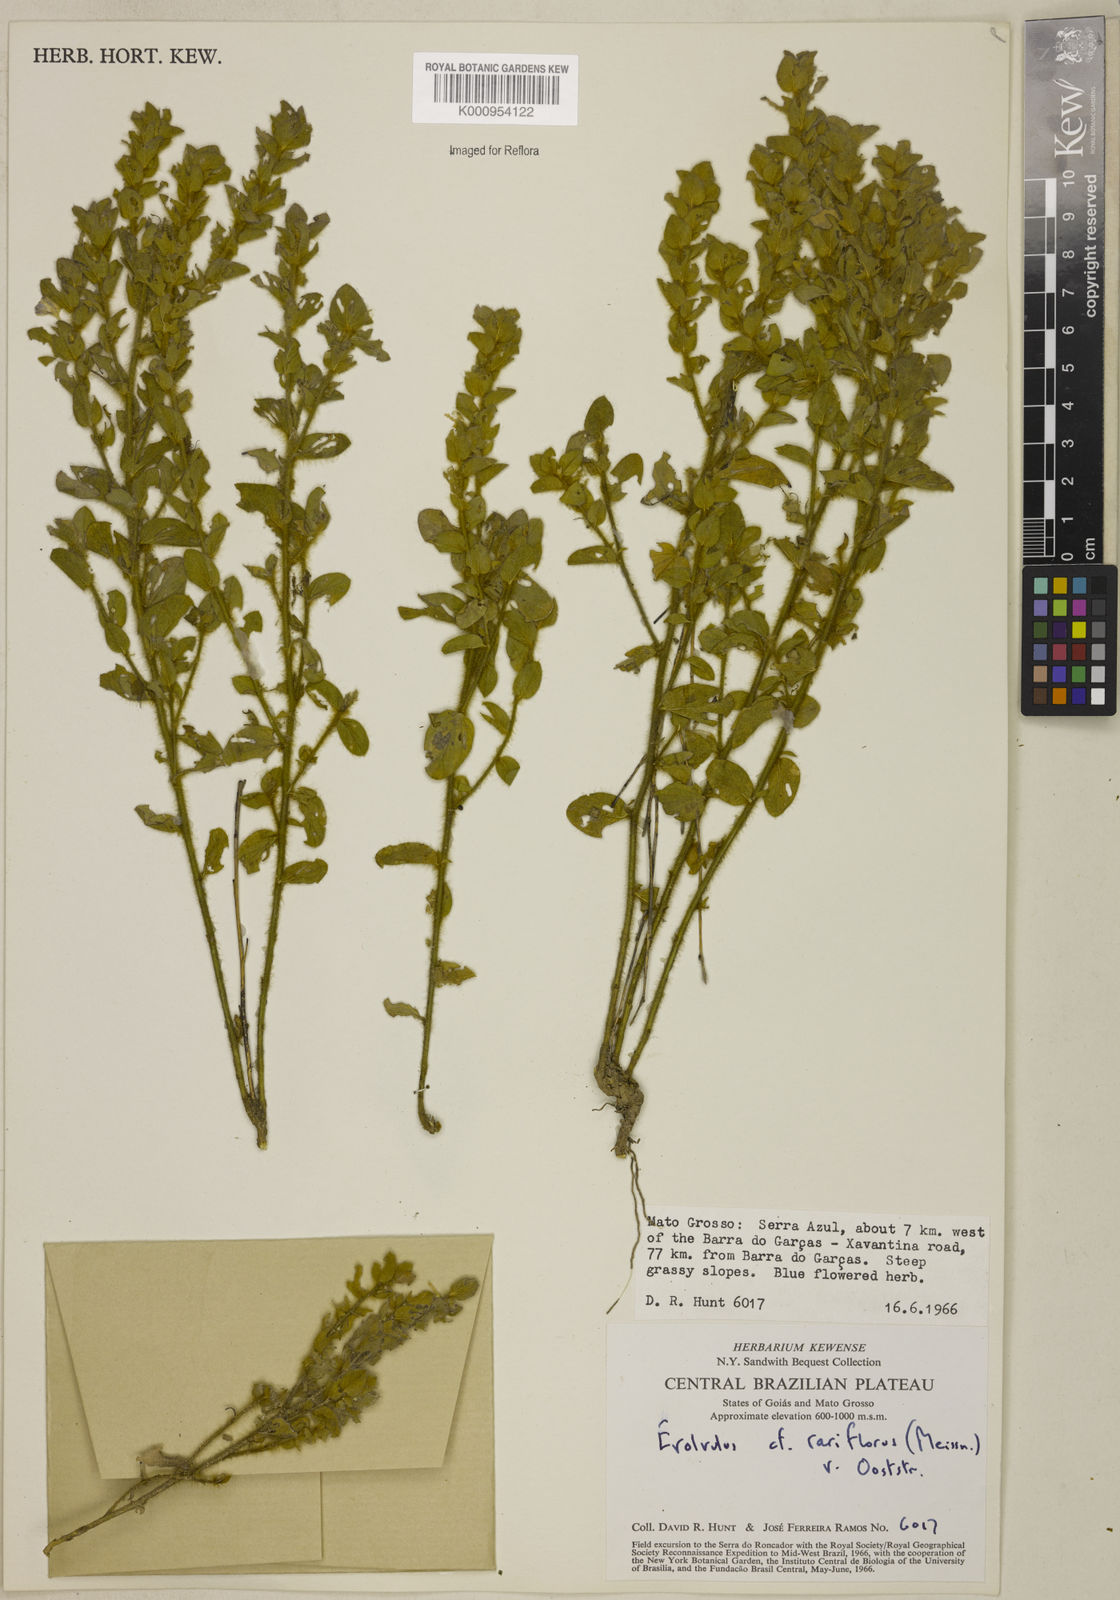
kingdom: Plantae
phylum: Tracheophyta
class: Magnoliopsida
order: Solanales
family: Convolvulaceae
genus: Evolvulus
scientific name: Evolvulus rariflorus
